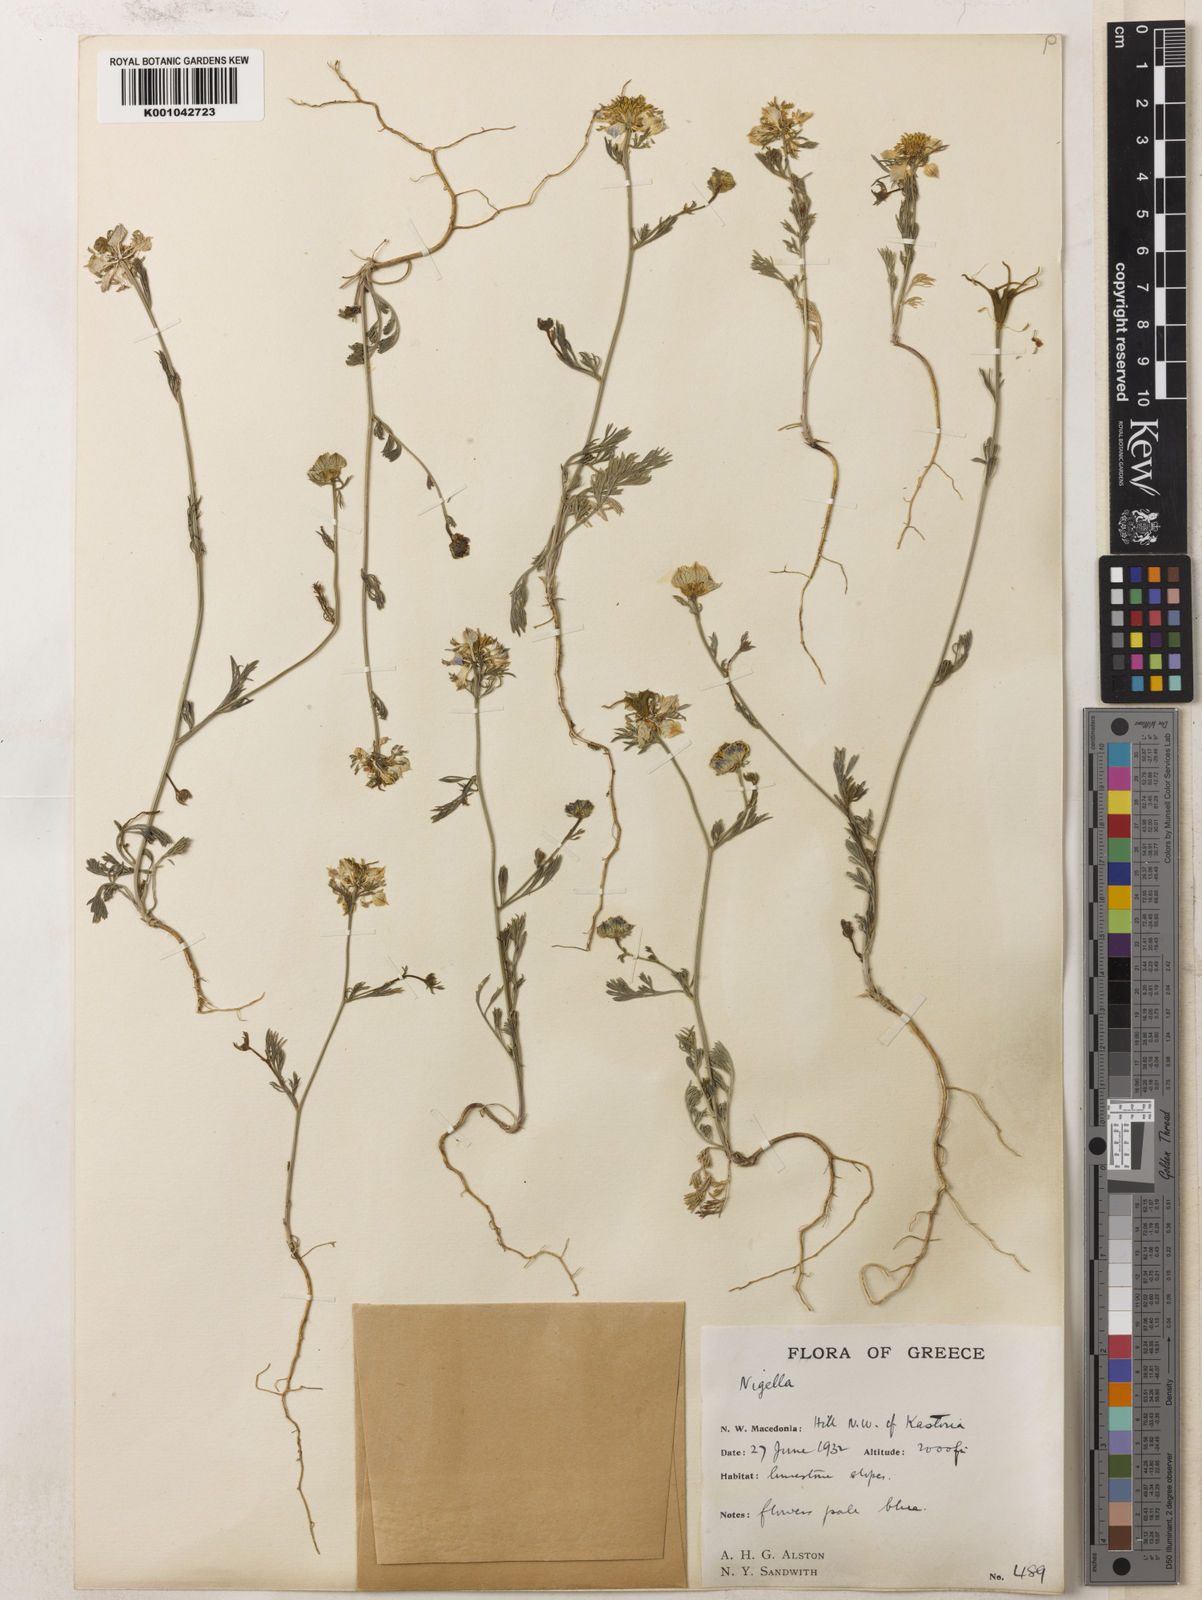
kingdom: Plantae
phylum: Tracheophyta
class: Magnoliopsida
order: Ranunculales
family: Ranunculaceae
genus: Nigella
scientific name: Nigella arvensis
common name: Wild fennel-flower
